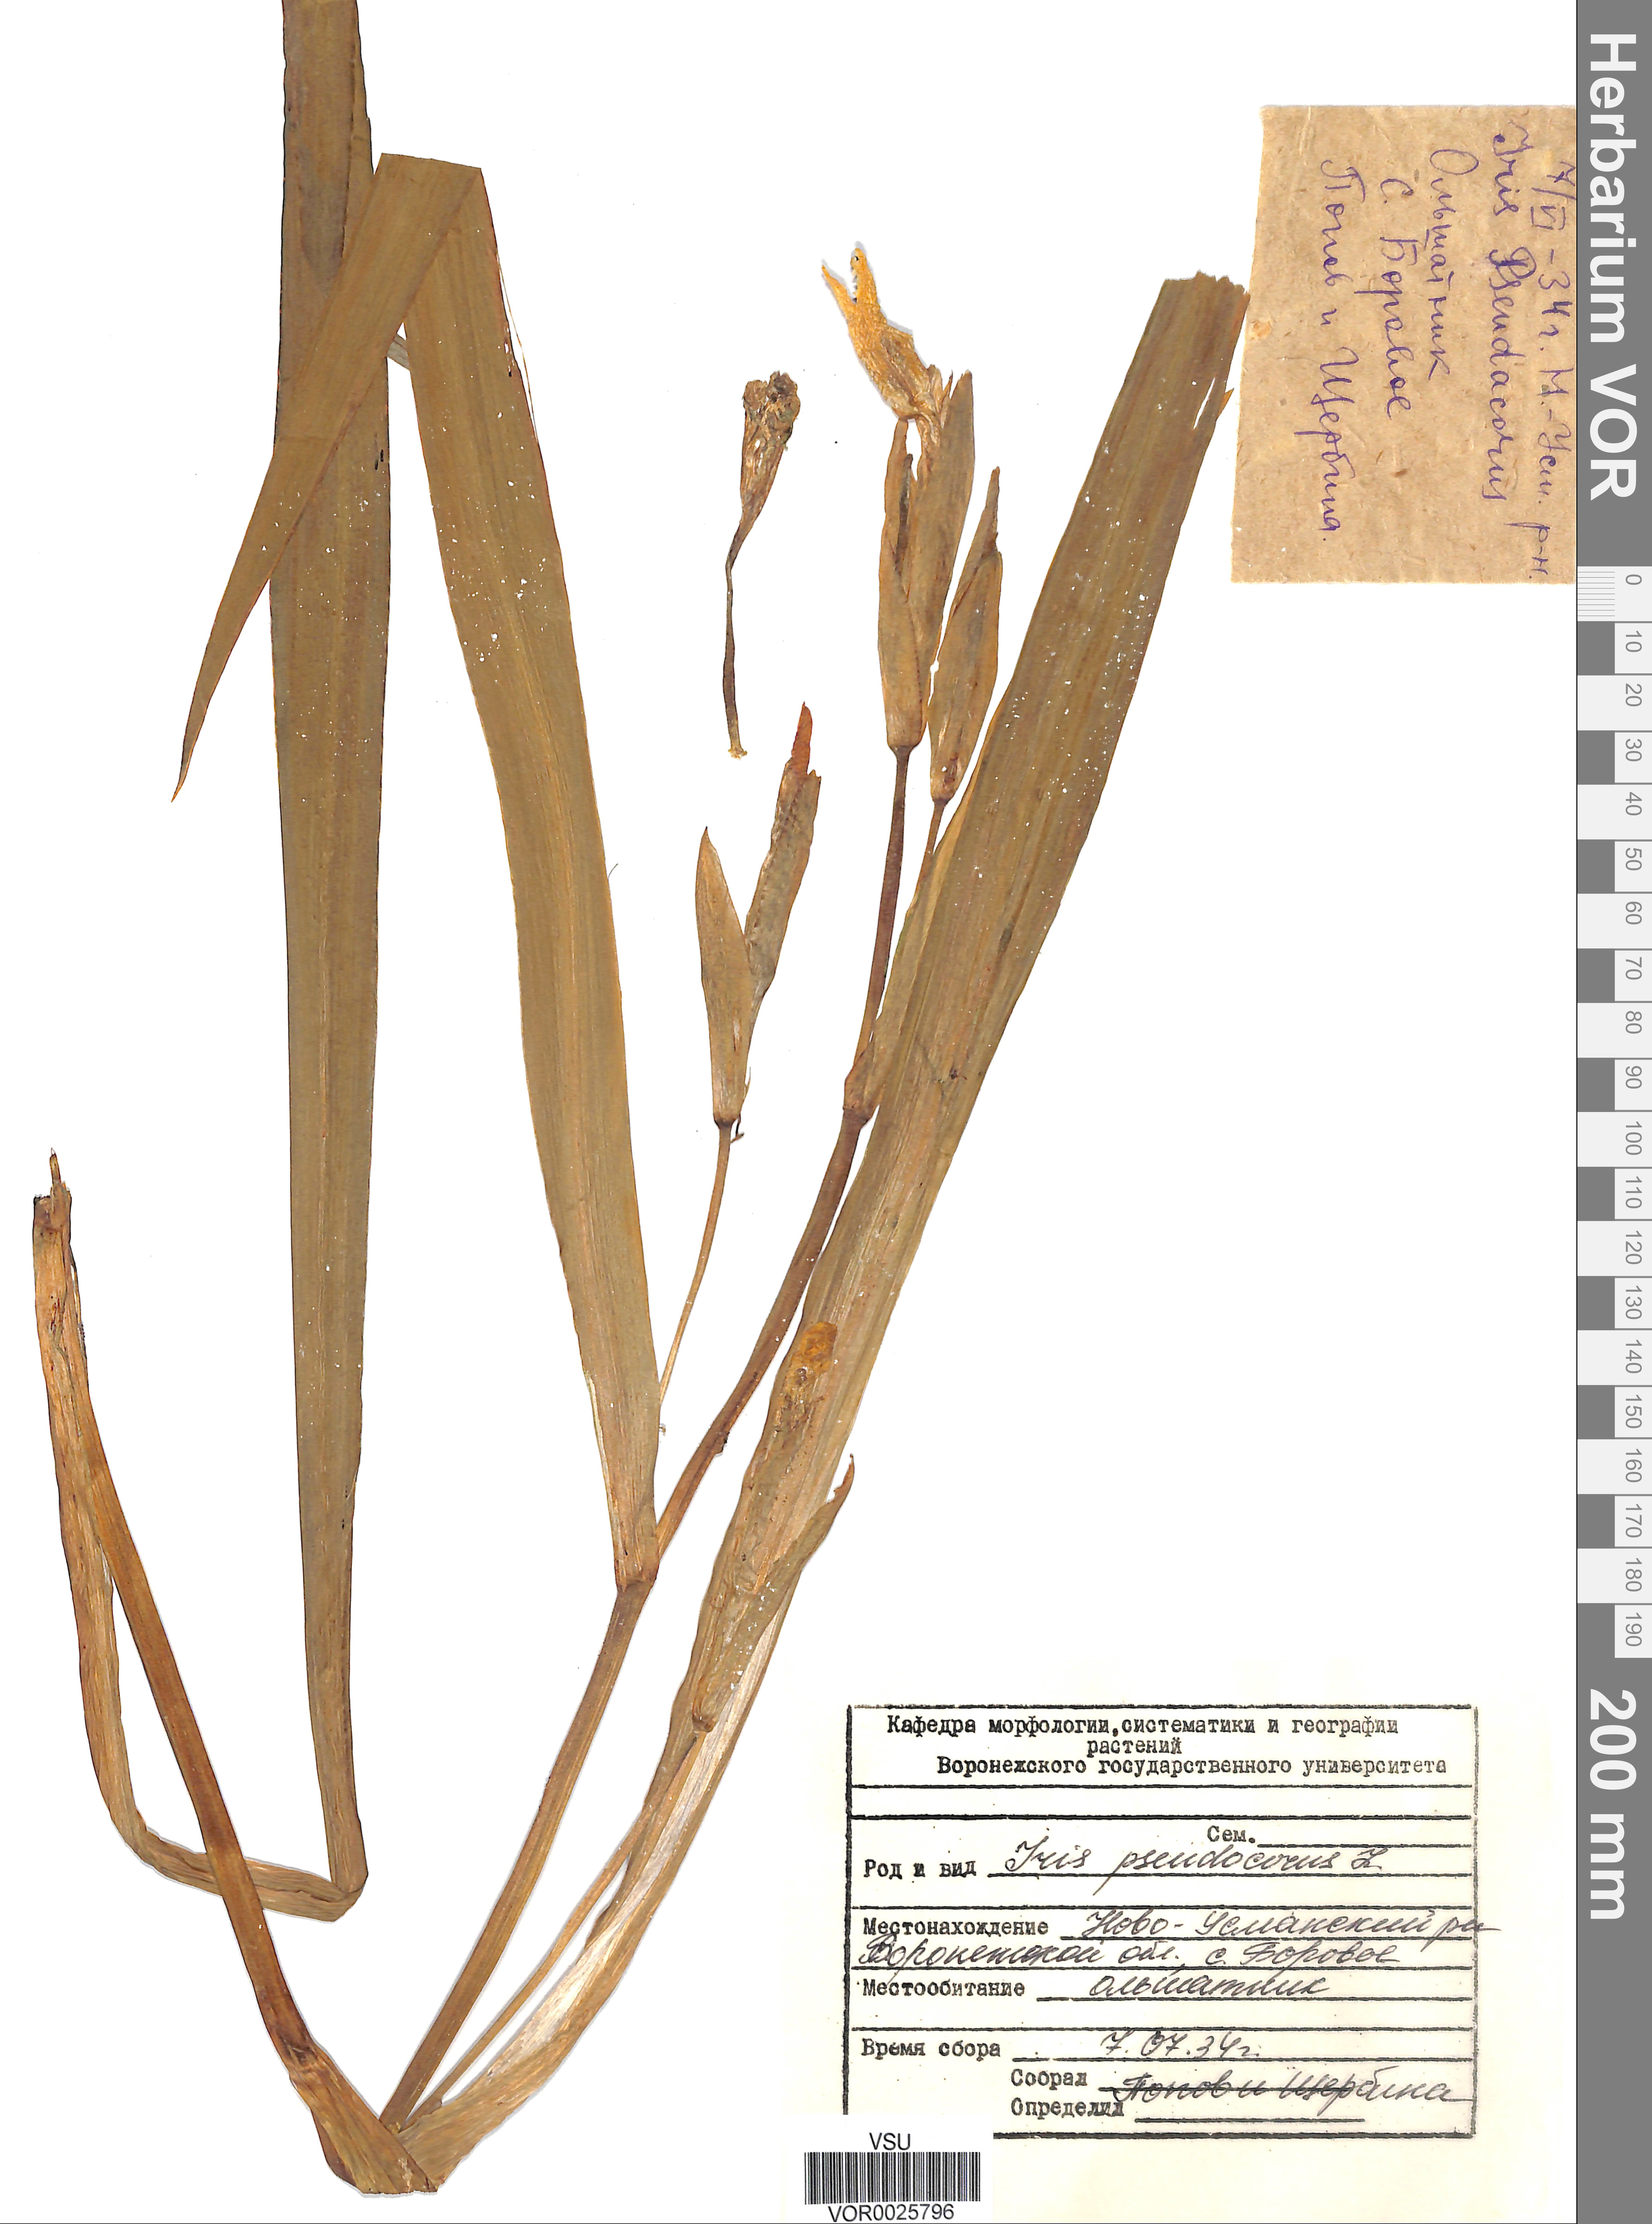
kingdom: Plantae
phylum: Tracheophyta
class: Liliopsida
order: Asparagales
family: Iridaceae
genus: Iris
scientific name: Iris pseudacorus
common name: Yellow flag
